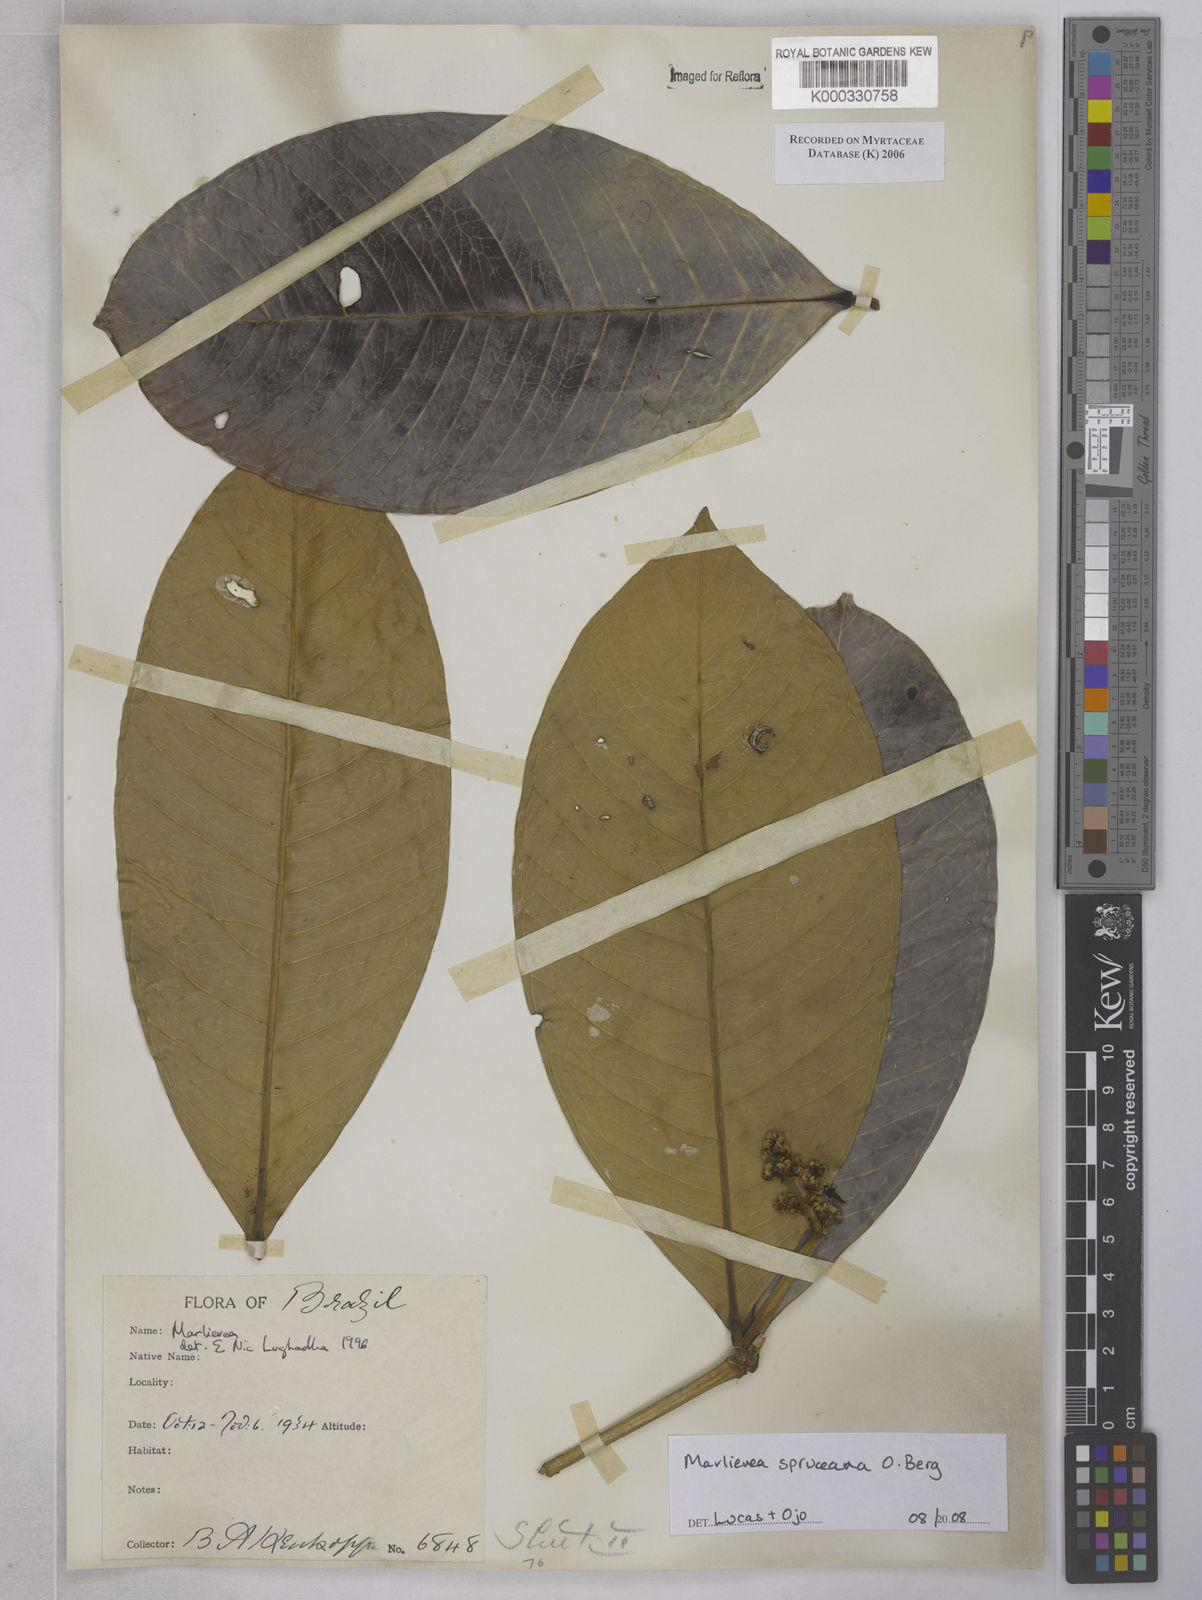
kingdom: Plantae
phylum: Tracheophyta
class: Magnoliopsida
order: Myrtales
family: Myrtaceae
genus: Marlierea
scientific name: Marlierea
